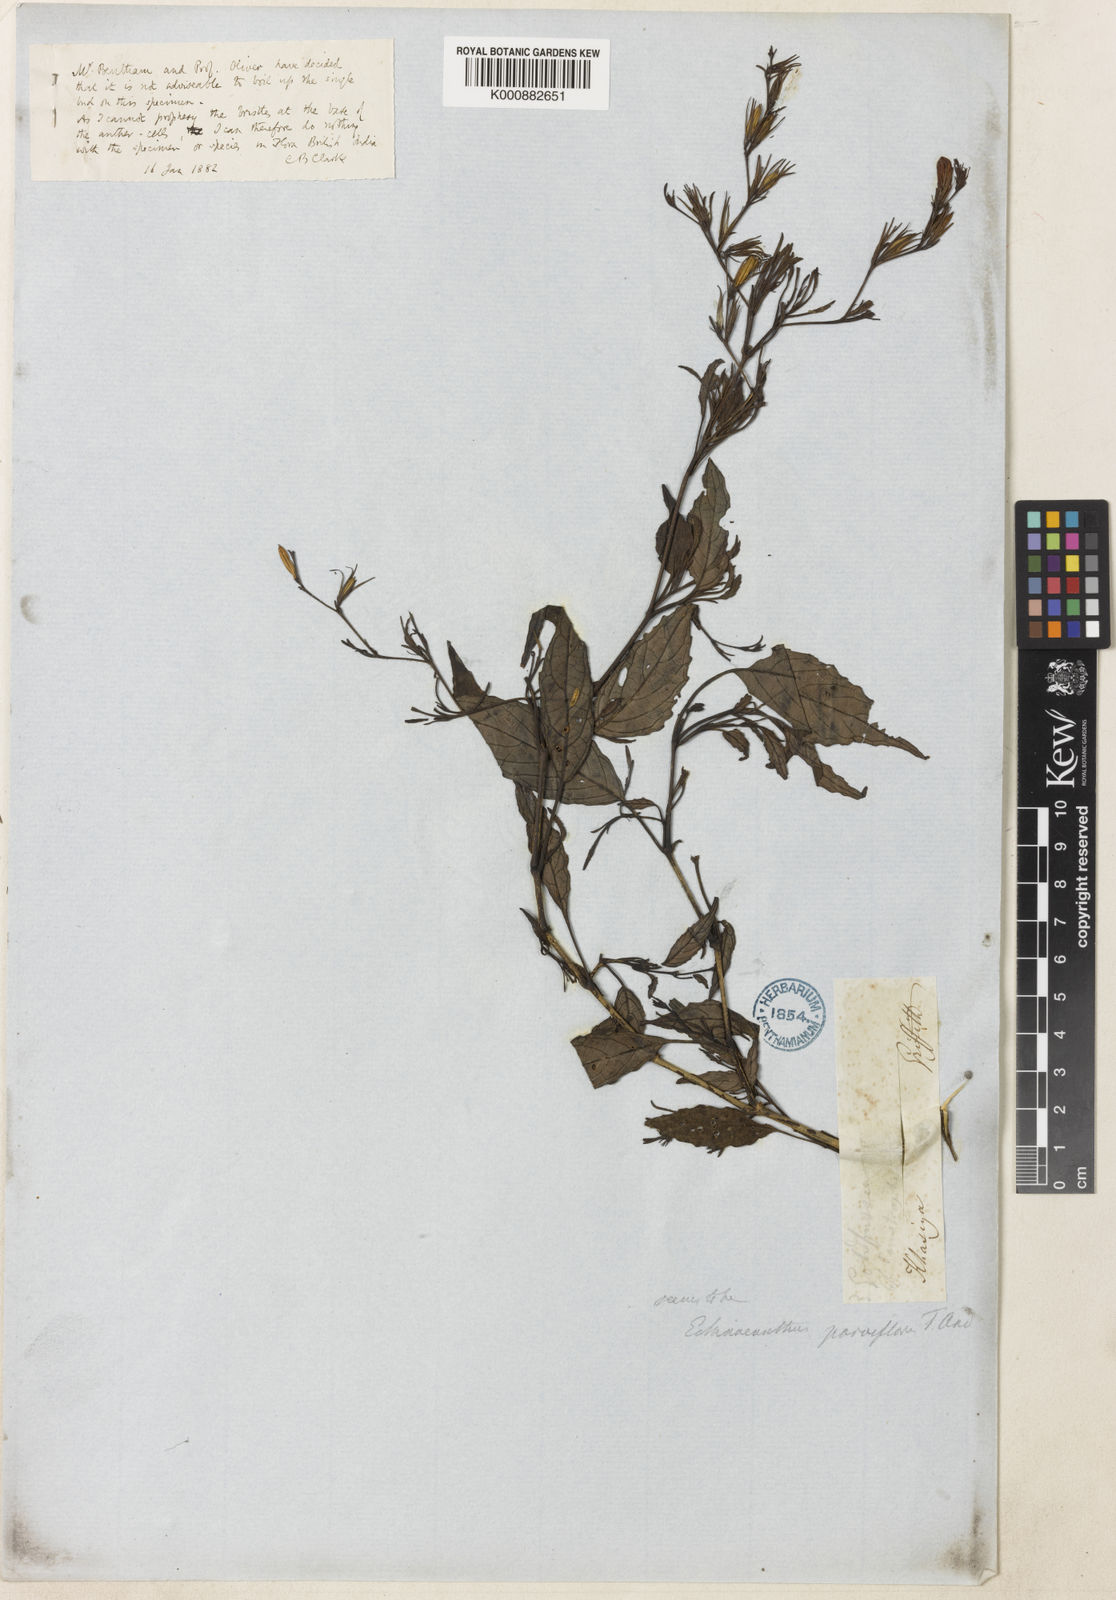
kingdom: Plantae
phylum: Tracheophyta
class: Magnoliopsida
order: Lamiales
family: Acanthaceae
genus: Strobilanthes
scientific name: Strobilanthes violifolia
